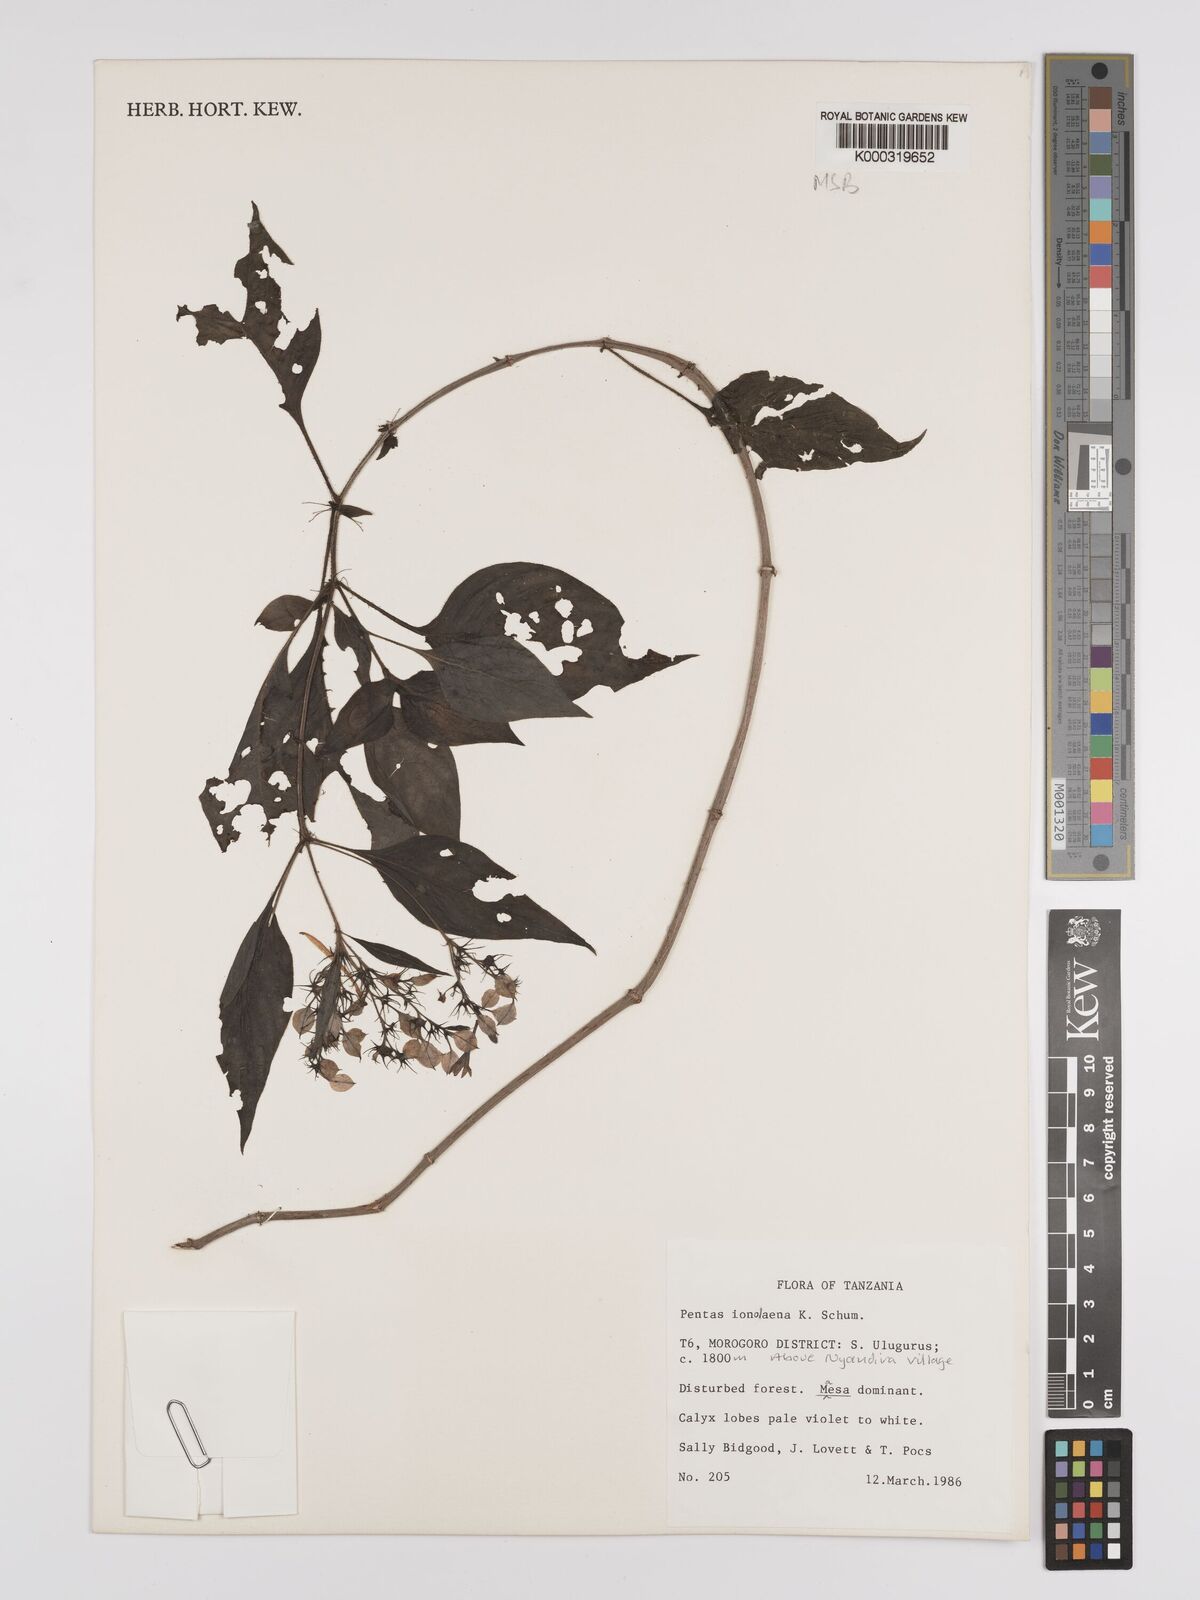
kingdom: Plantae
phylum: Tracheophyta
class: Magnoliopsida
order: Gentianales
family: Rubiaceae
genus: Phyllopentas
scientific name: Phyllopentas ionolaena
